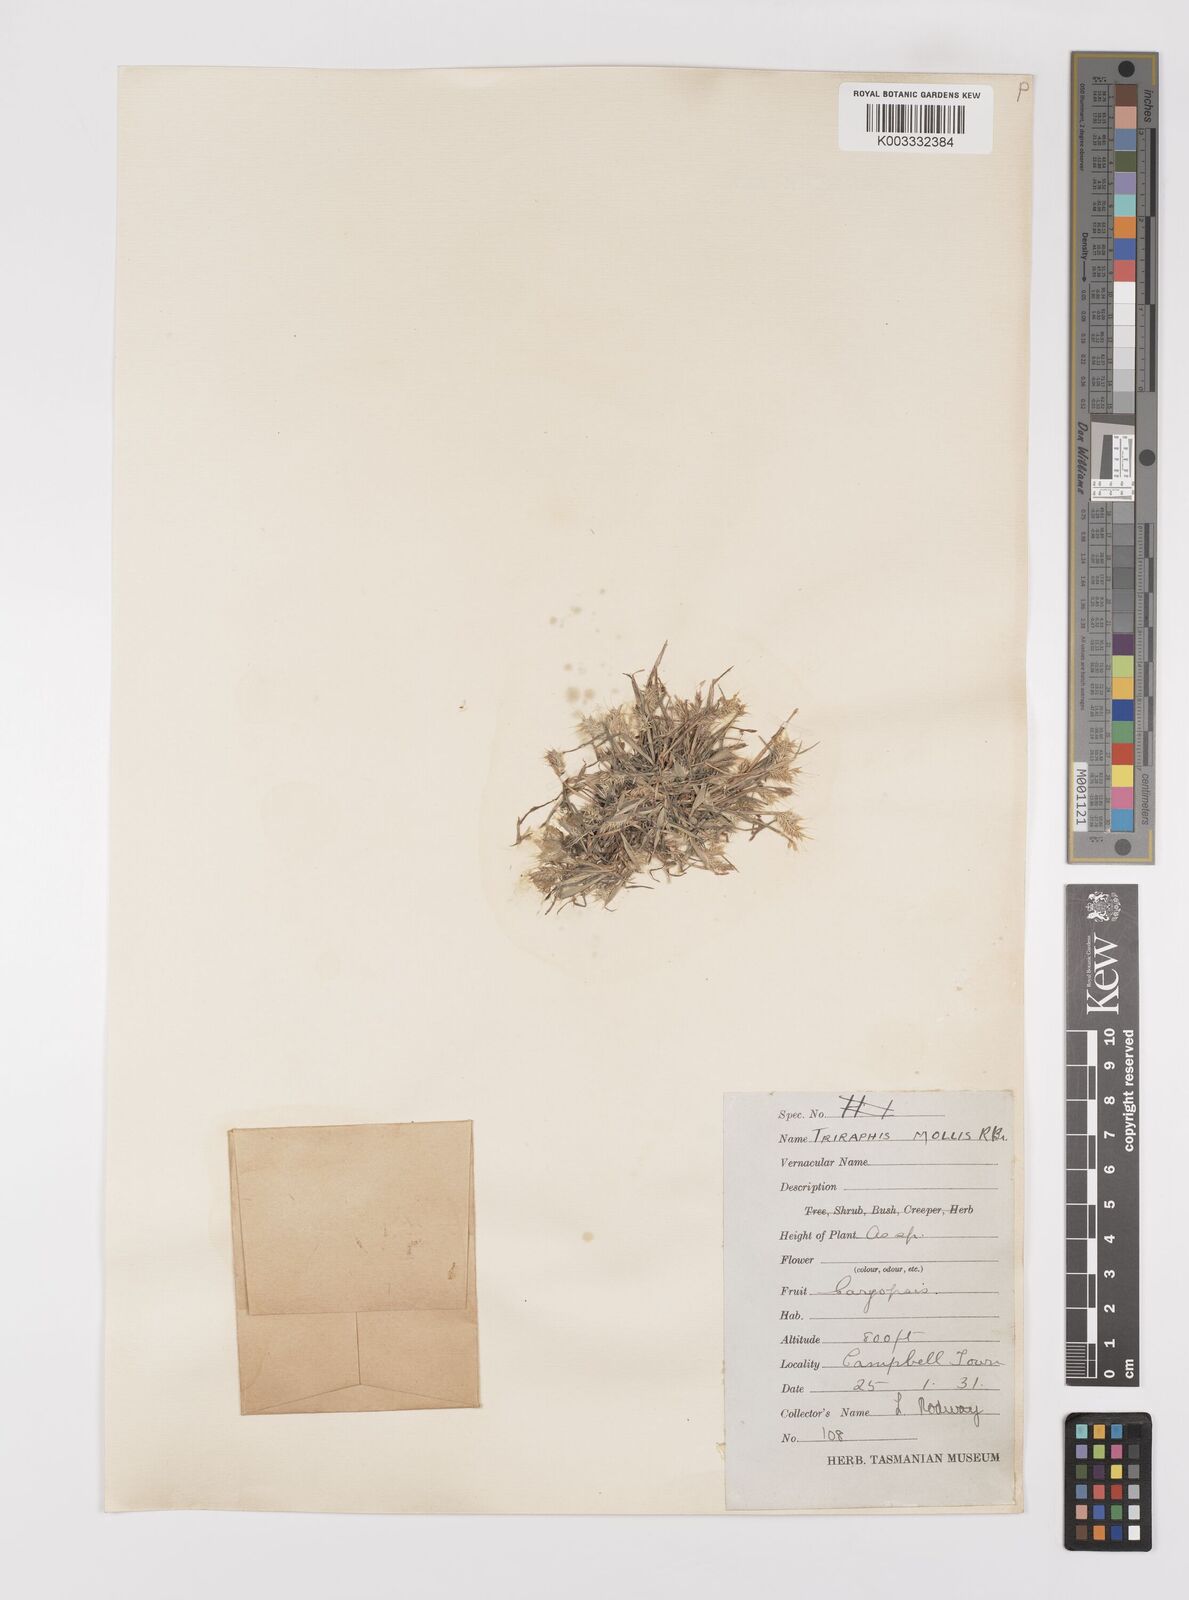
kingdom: Plantae
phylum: Tracheophyta
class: Liliopsida
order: Poales
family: Poaceae
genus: Polypogon
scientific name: Polypogon monspeliensis
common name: Annual rabbitsfoot grass
